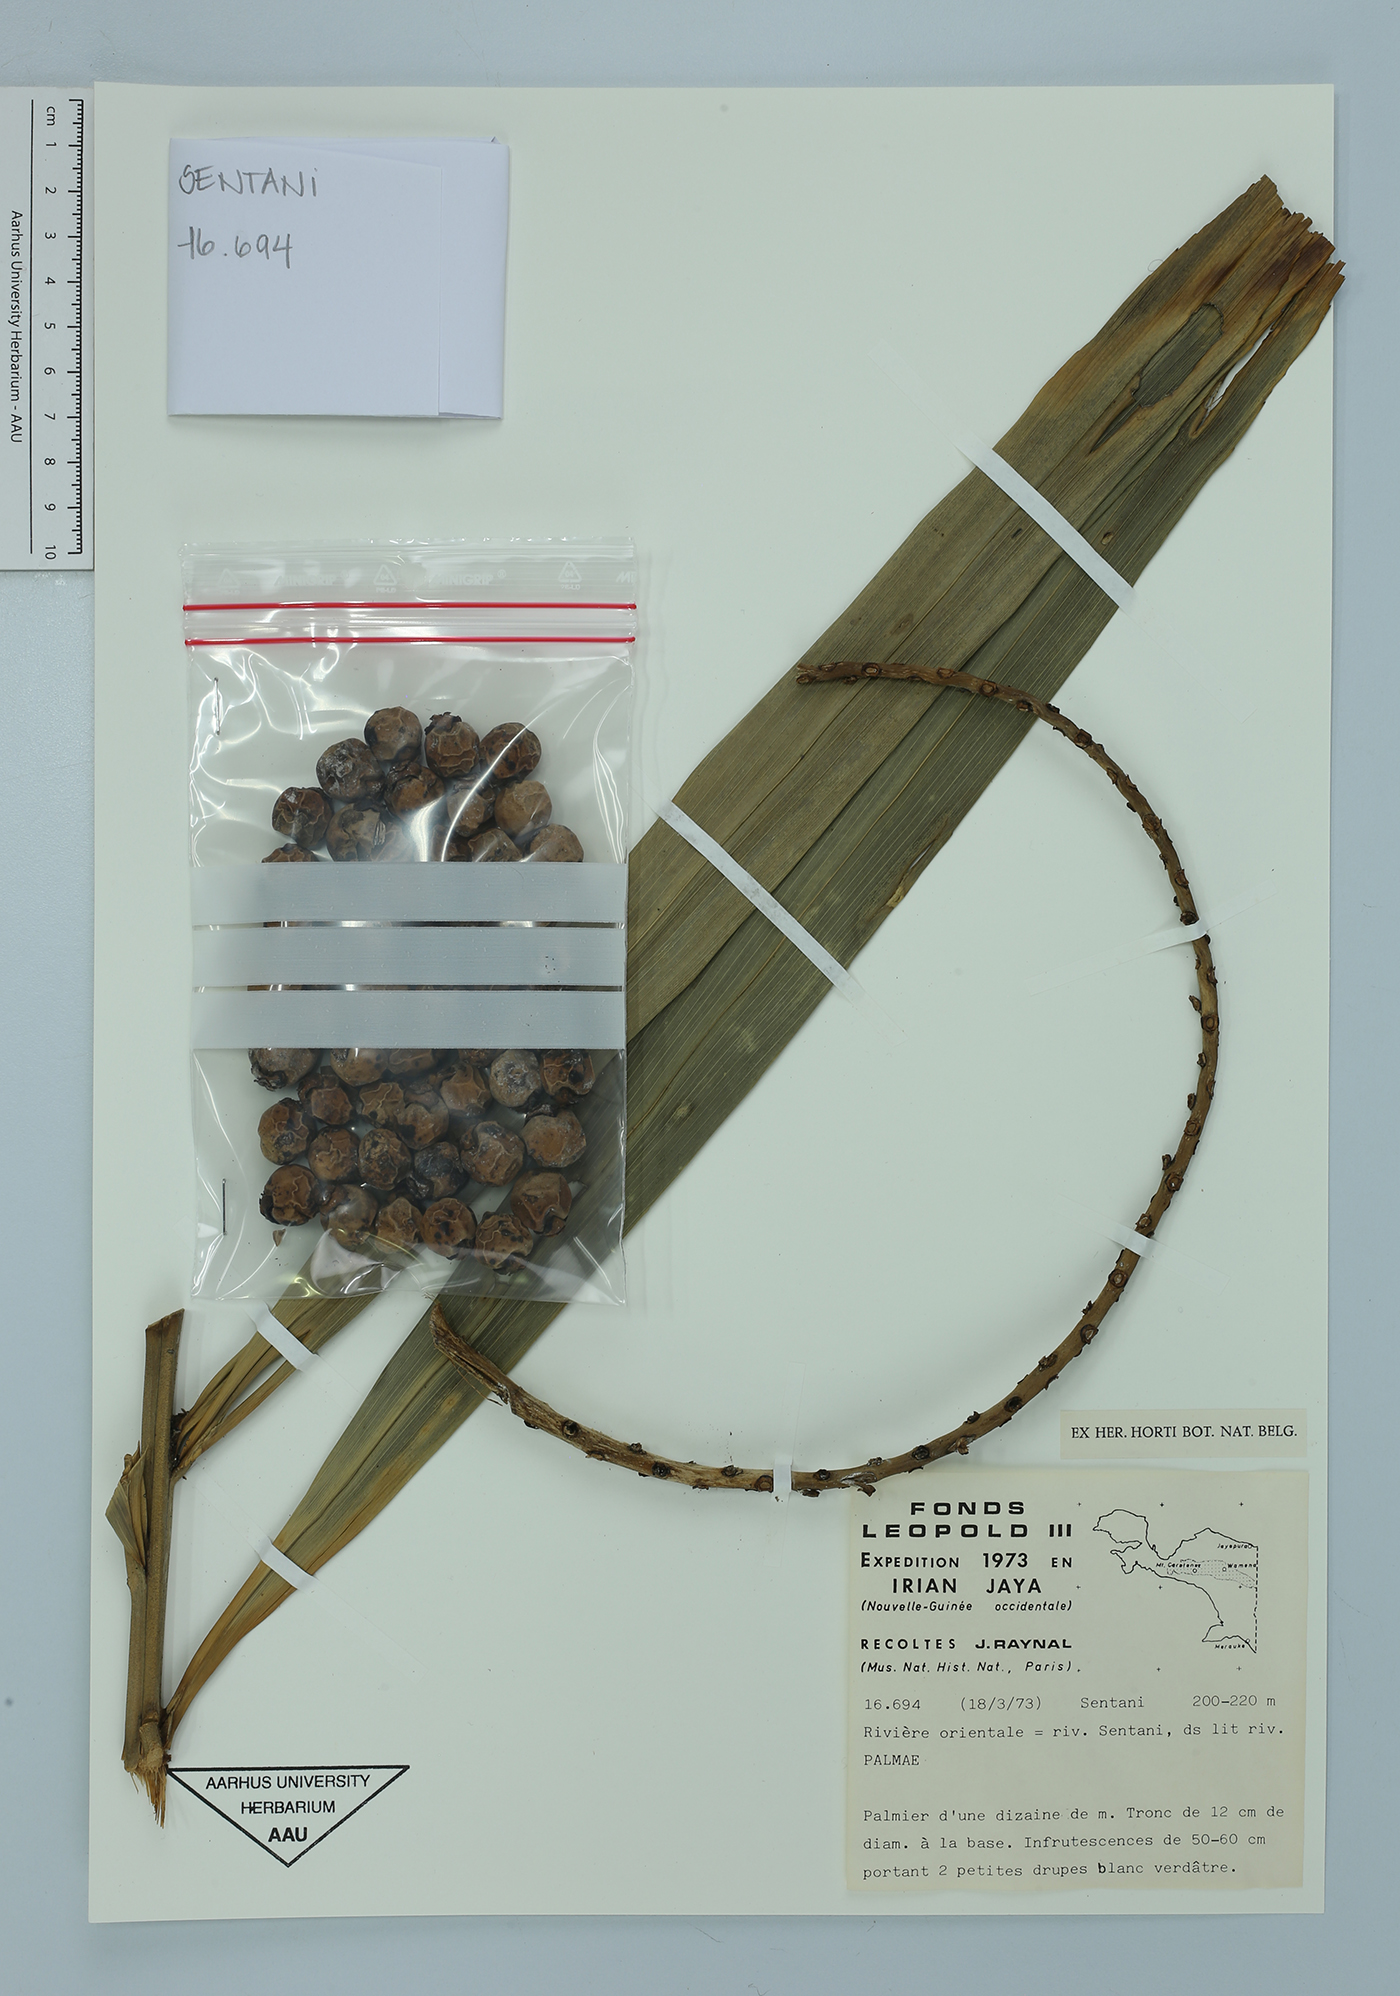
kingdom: Plantae
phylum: Tracheophyta
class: Liliopsida
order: Arecales
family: Arecaceae
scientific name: Arecaceae
